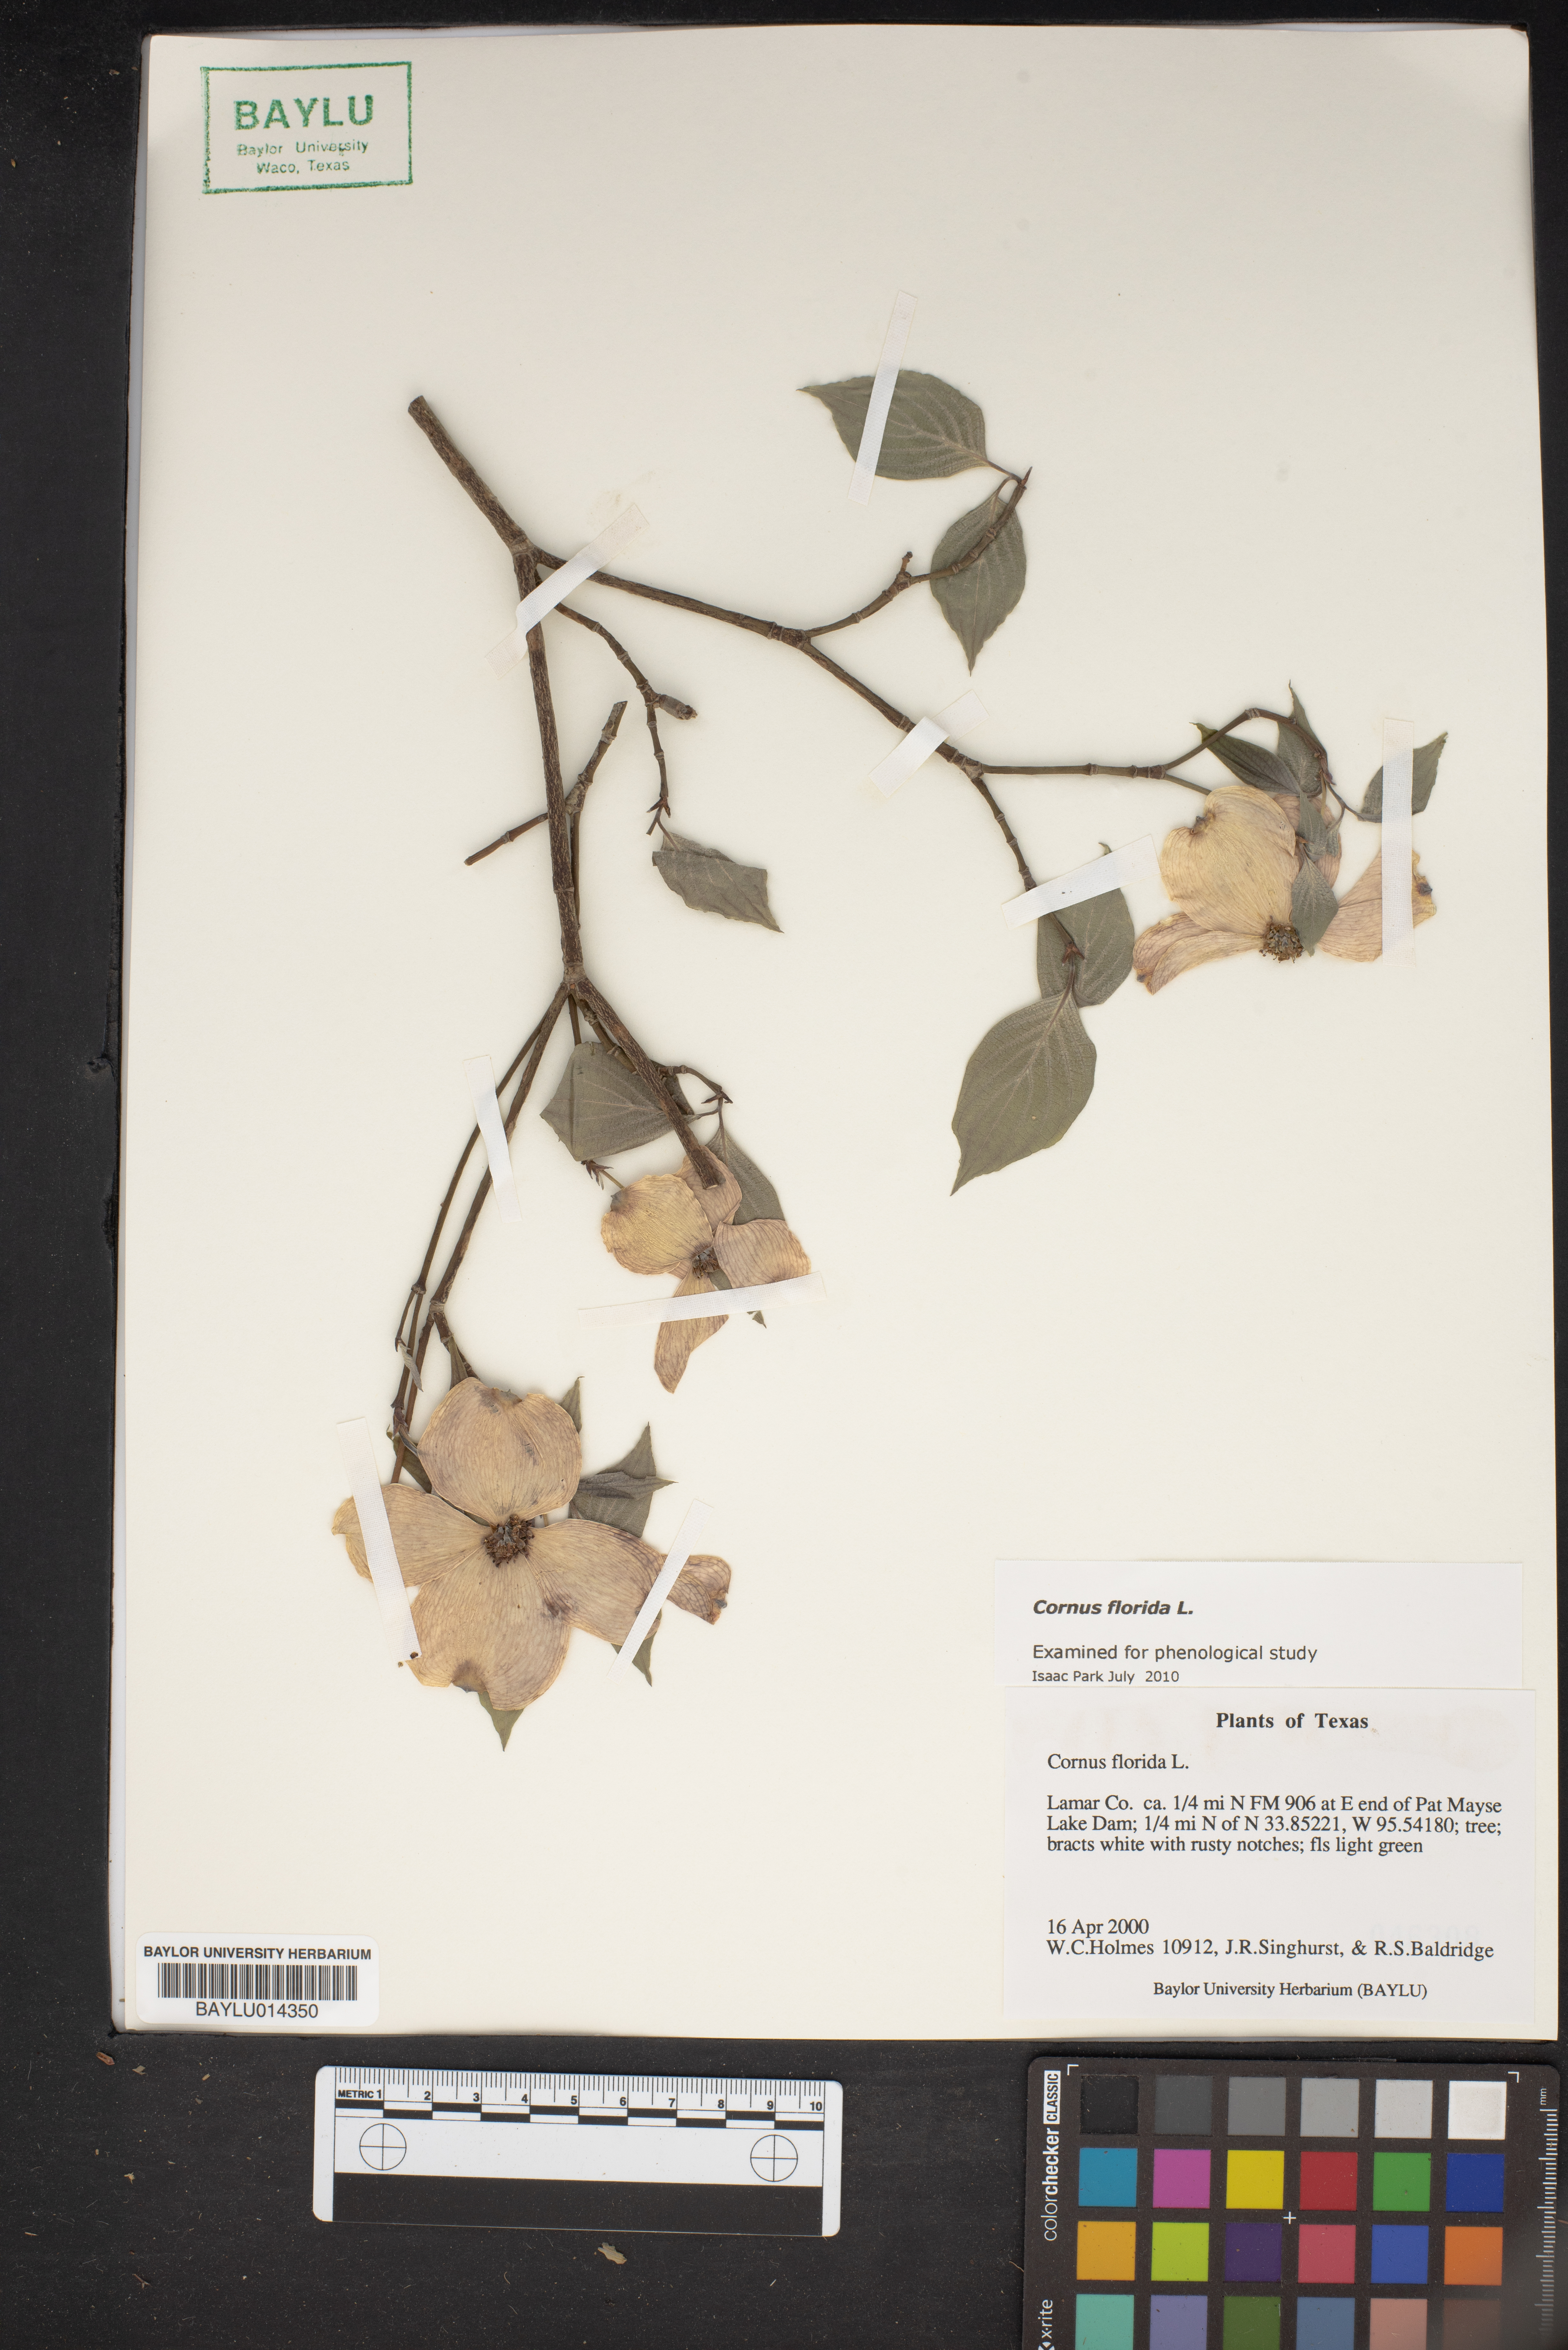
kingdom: Plantae
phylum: Tracheophyta
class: Magnoliopsida
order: Cornales
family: Cornaceae
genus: Cornus
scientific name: Cornus florida
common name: Flowering dogwood
